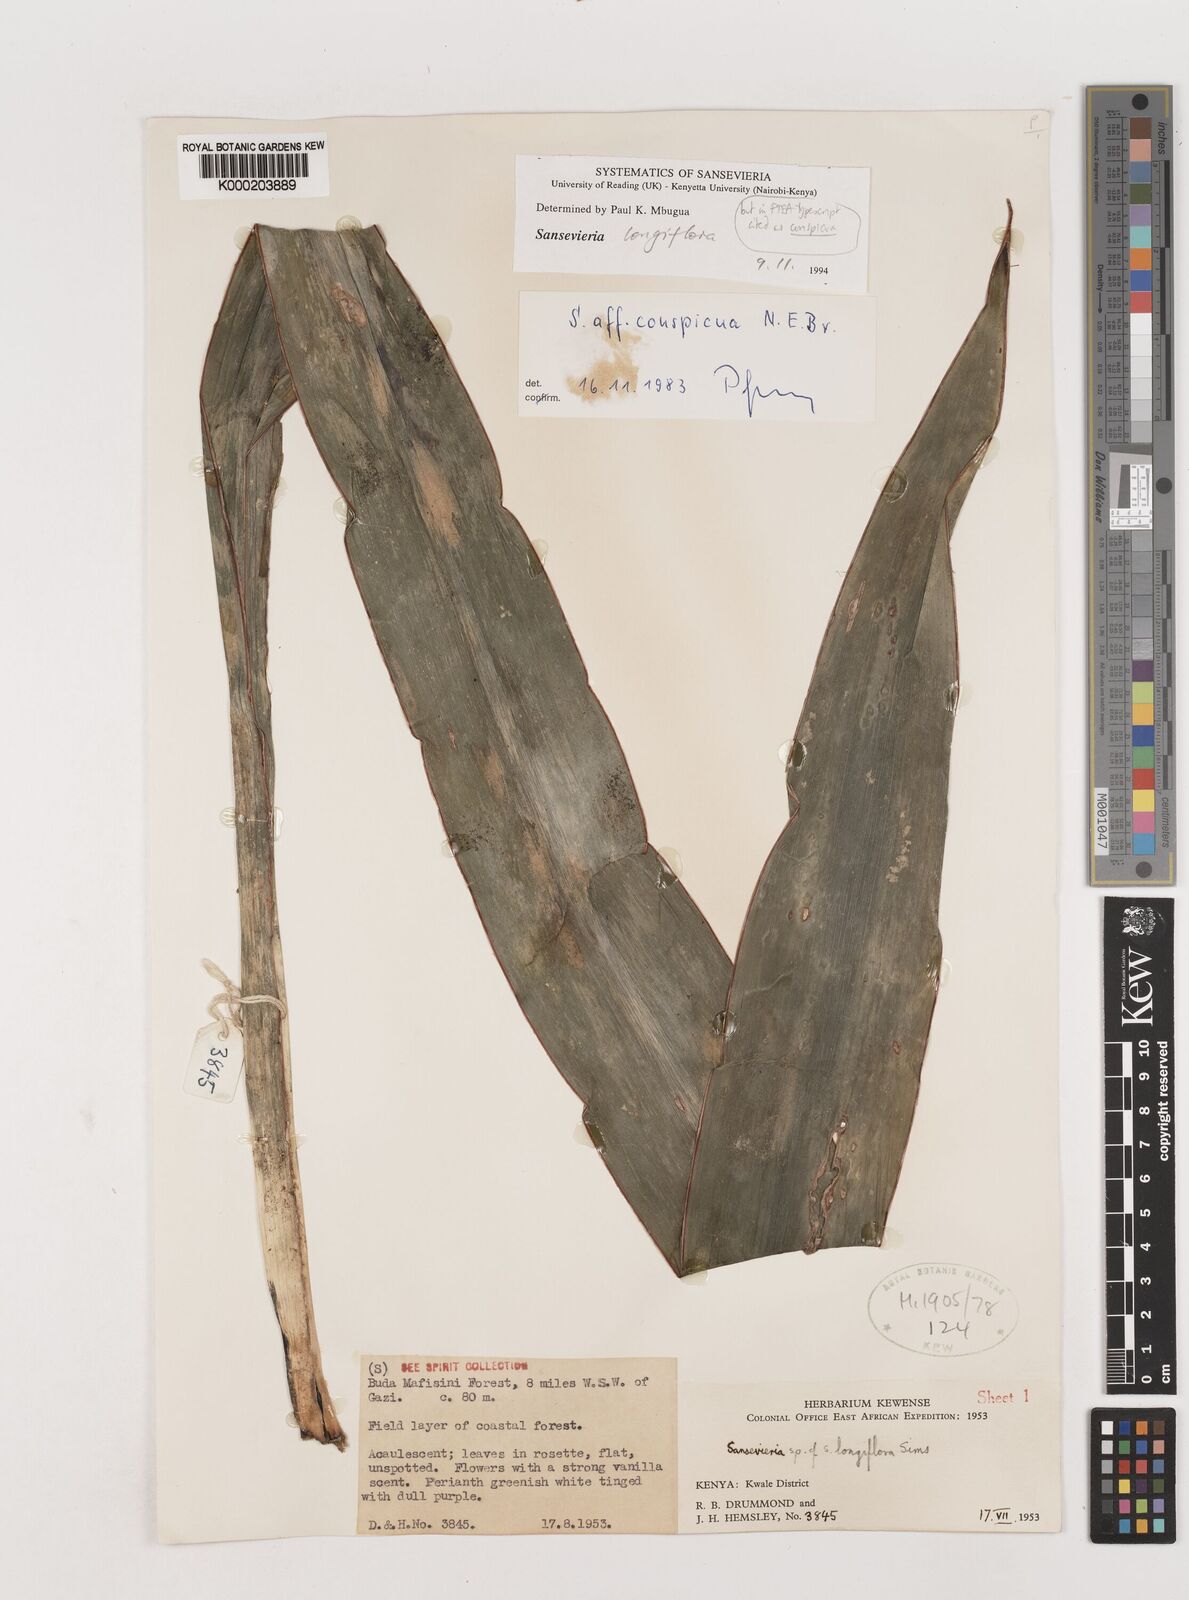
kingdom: Plantae
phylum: Tracheophyta
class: Liliopsida
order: Asparagales
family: Asparagaceae
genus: Dracaena
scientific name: Dracaena conspicua
